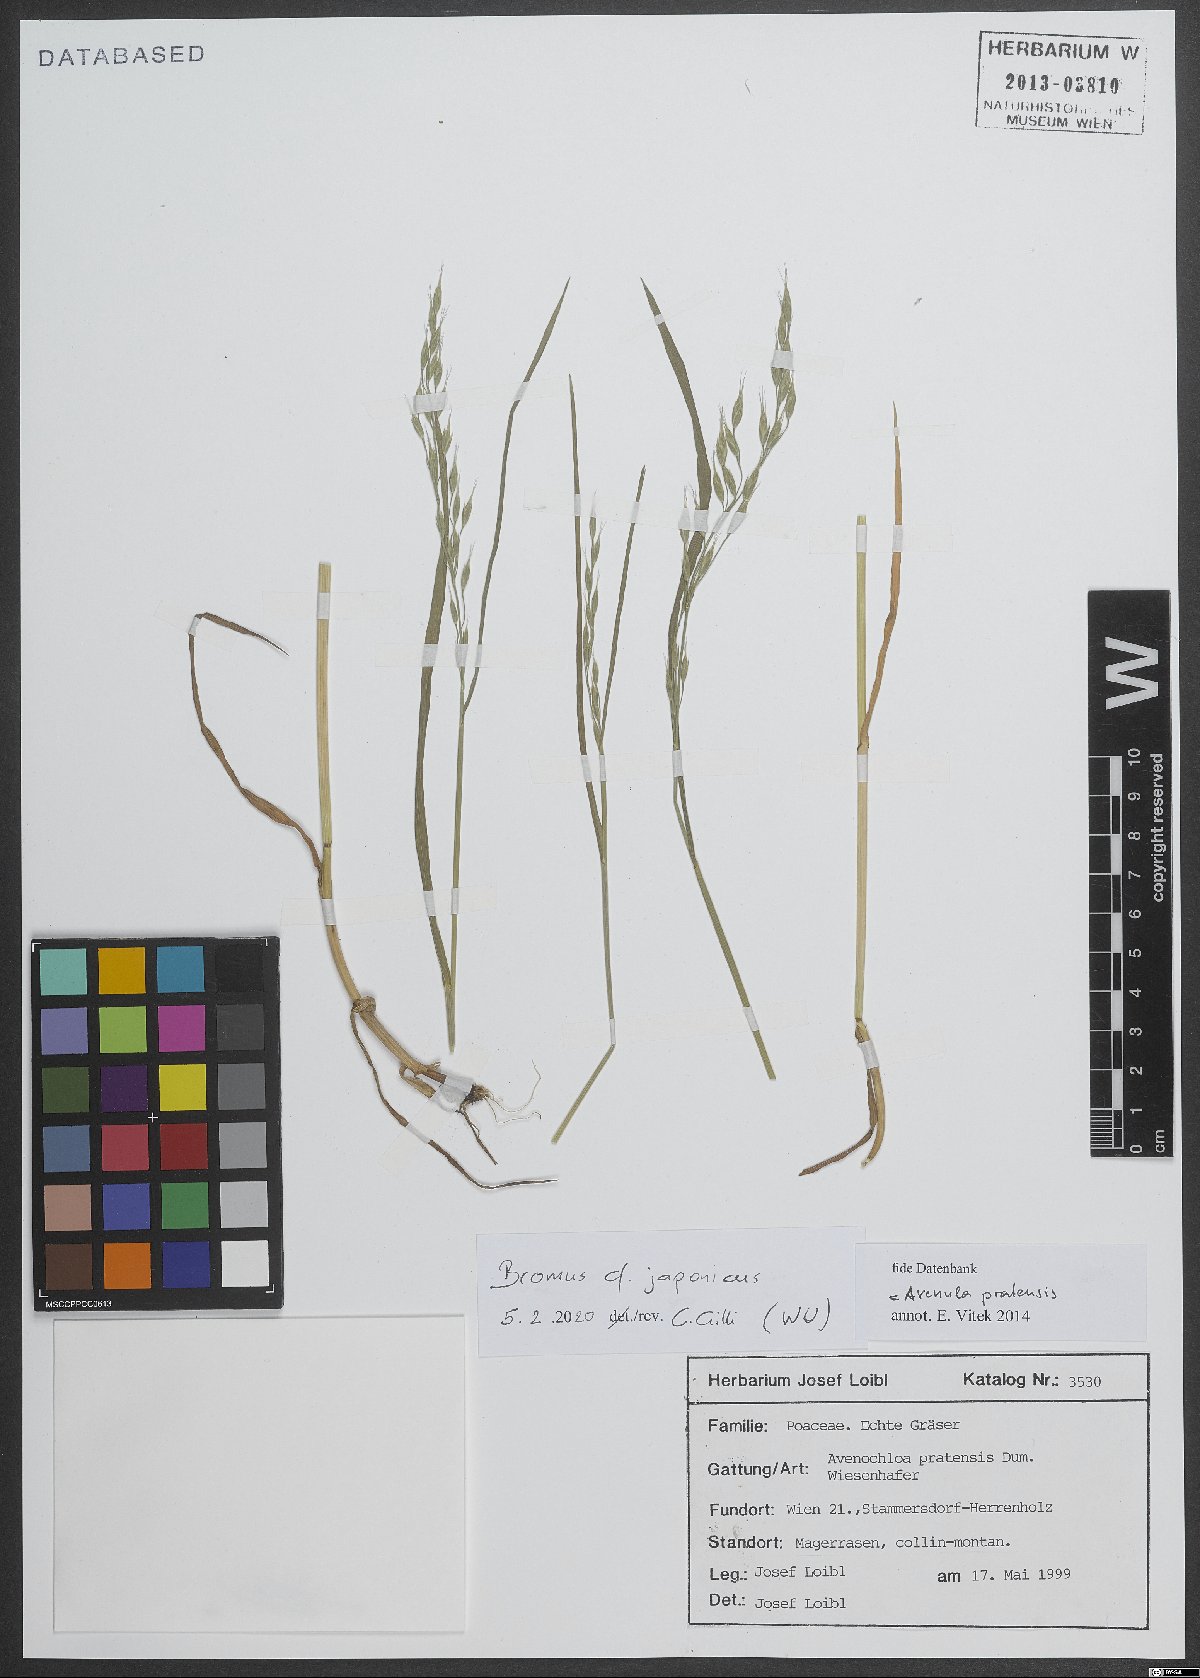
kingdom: Plantae
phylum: Tracheophyta
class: Liliopsida
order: Poales
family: Poaceae
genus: Bromus
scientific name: Bromus japonicus
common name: Japanese brome
